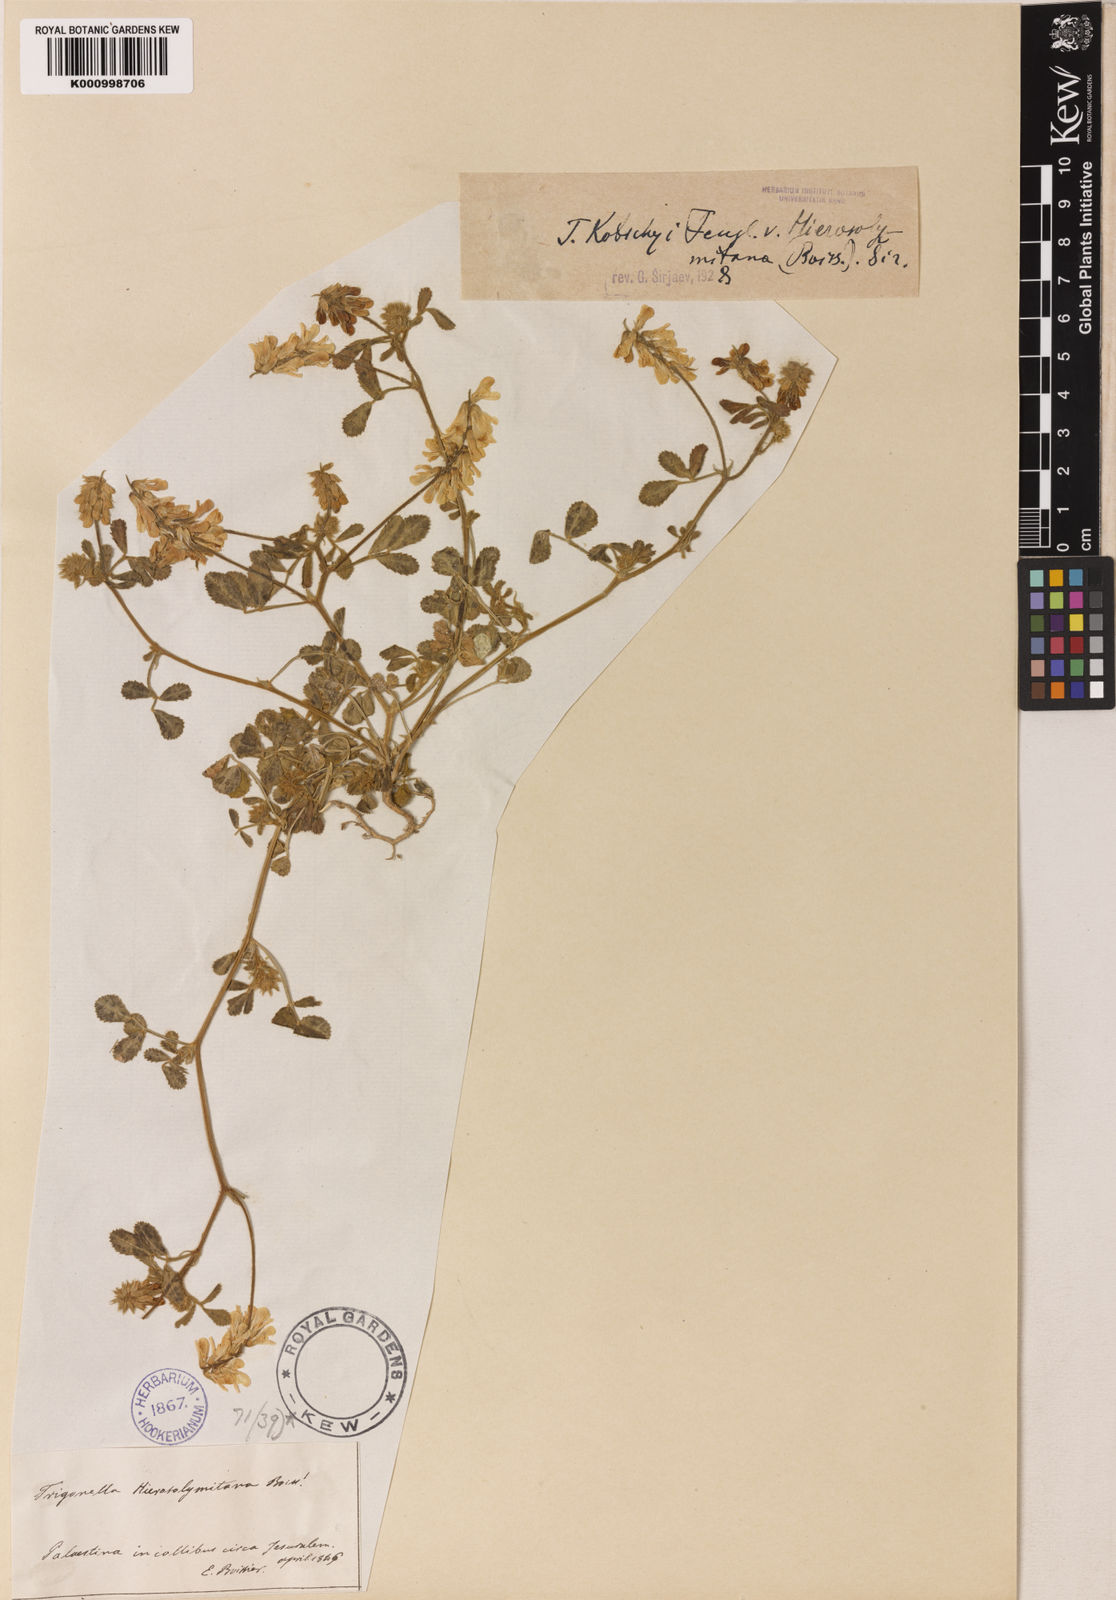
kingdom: Plantae
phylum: Tracheophyta
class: Magnoliopsida
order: Fabales
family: Fabaceae
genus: Trigonella
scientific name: Trigonella kotschyi
